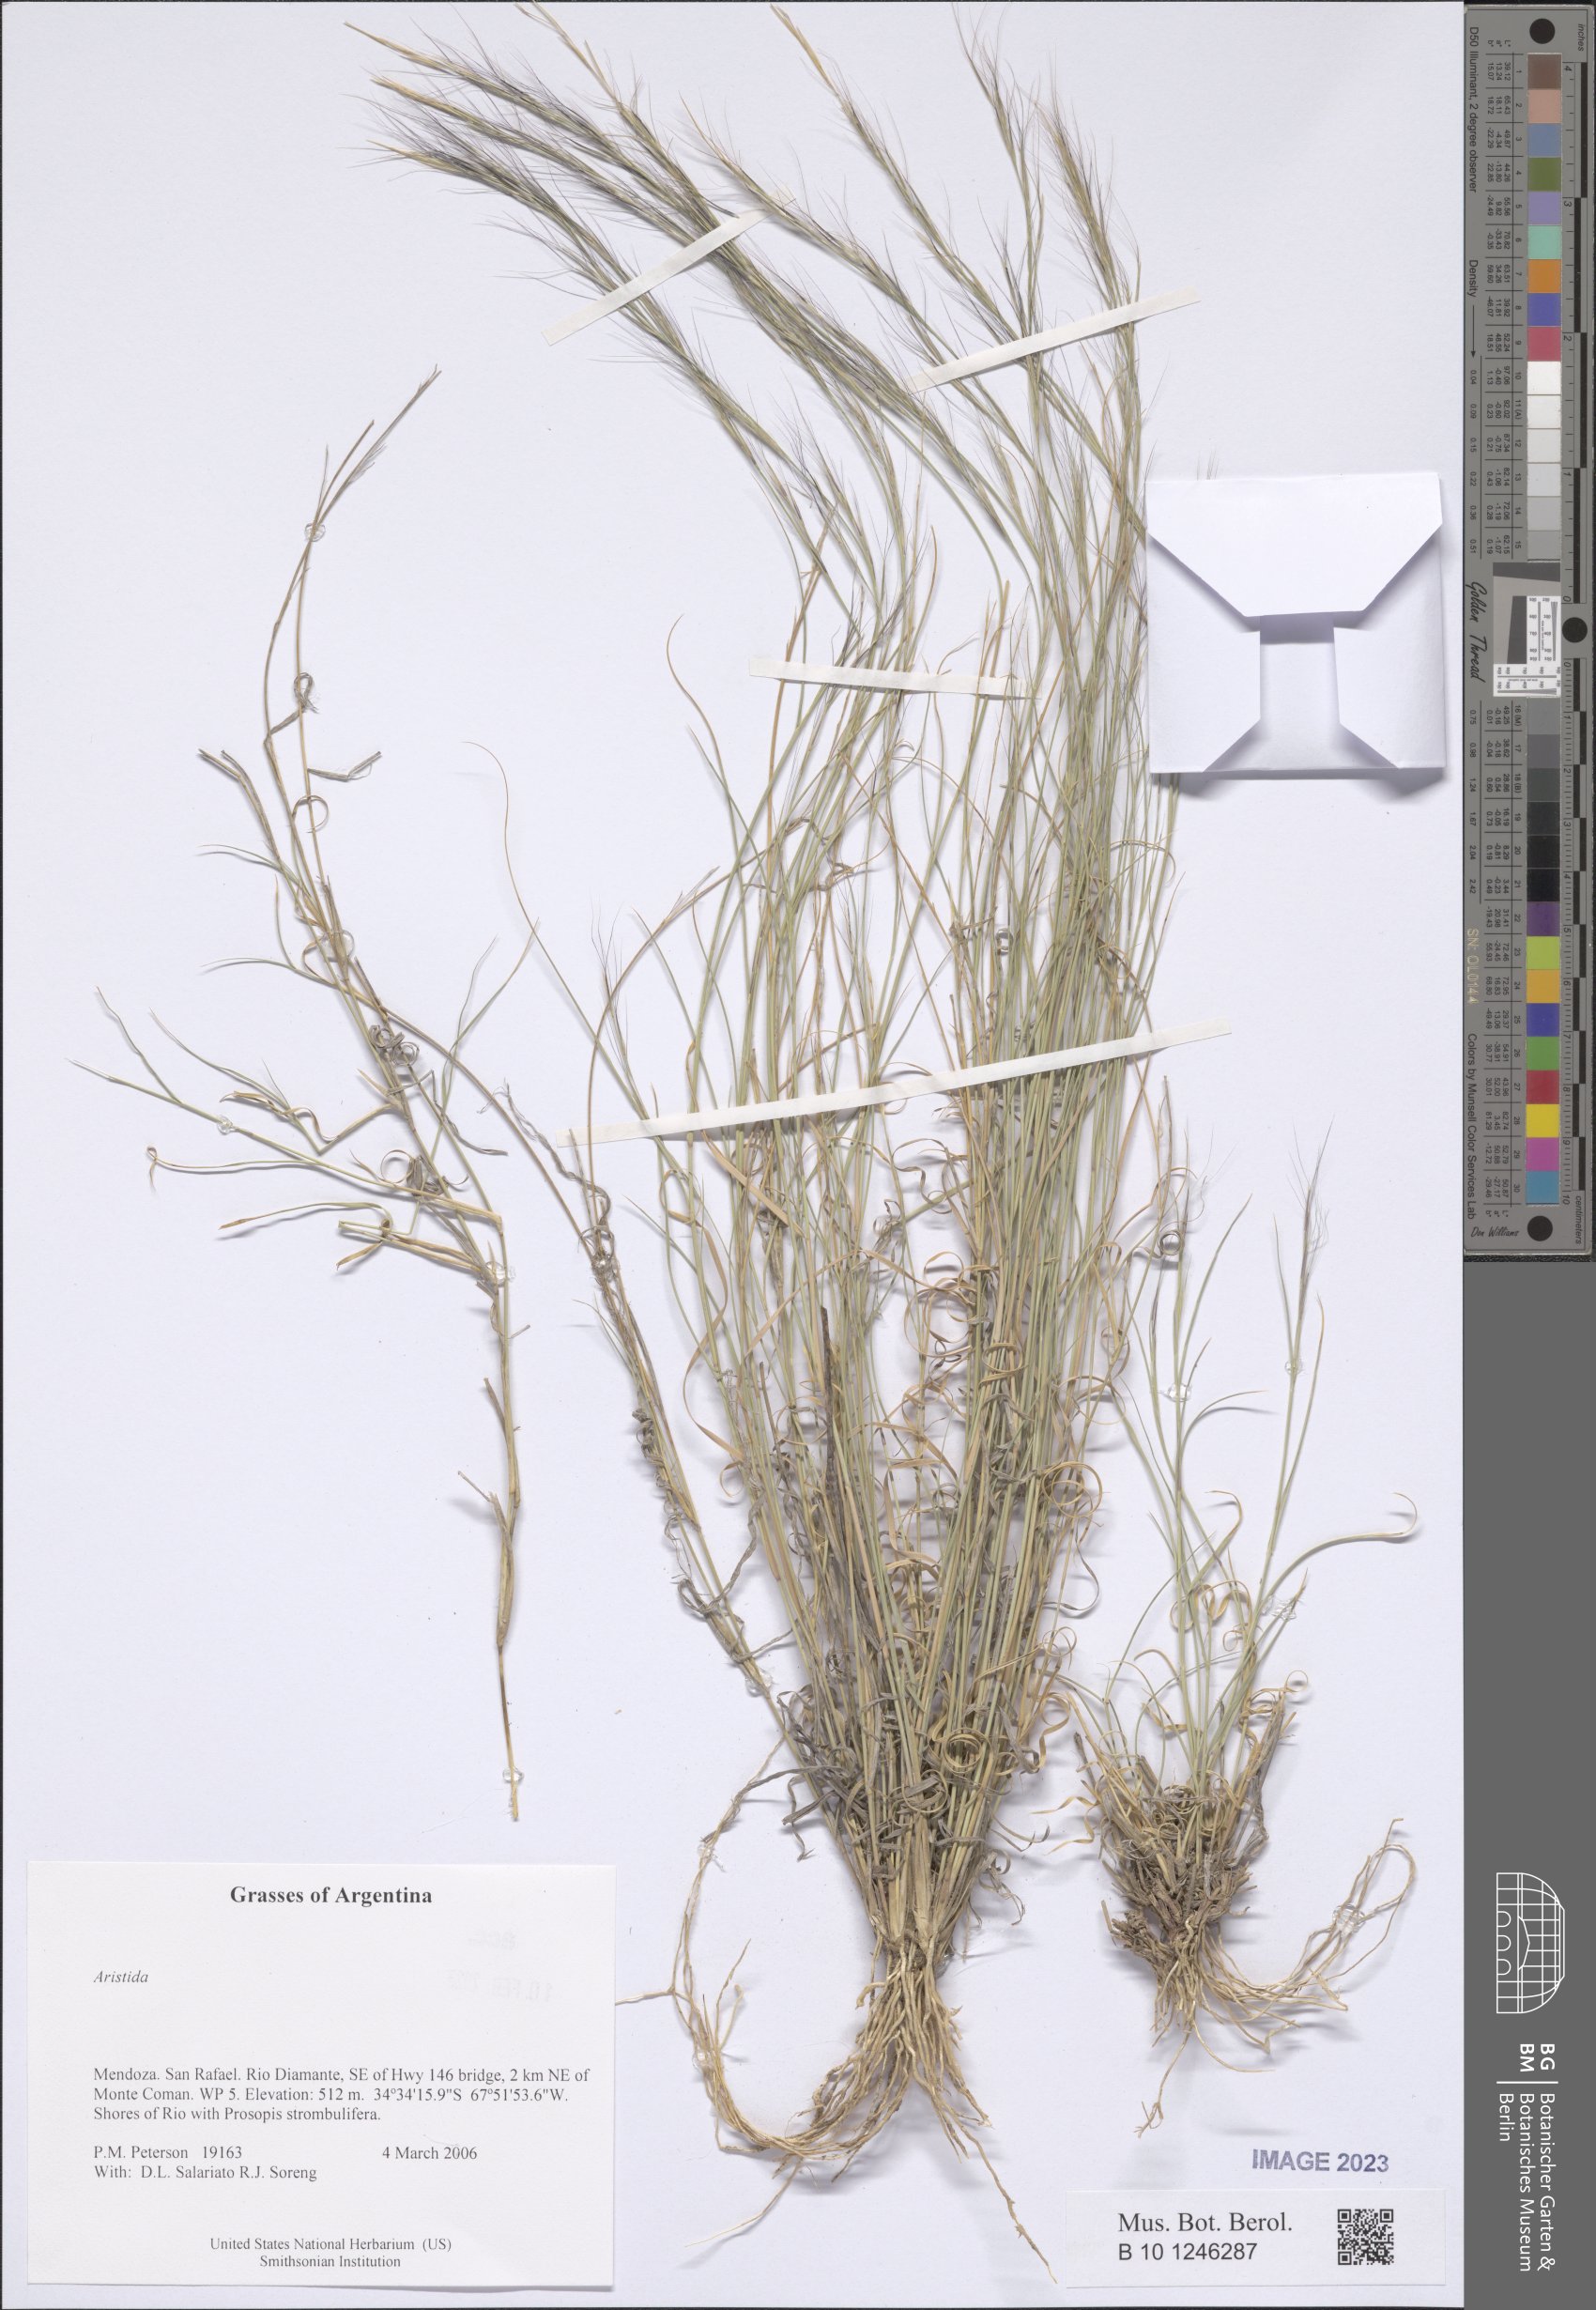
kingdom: Plantae
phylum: Tracheophyta
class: Liliopsida
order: Poales
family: Poaceae
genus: Aristida
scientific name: Aristida
